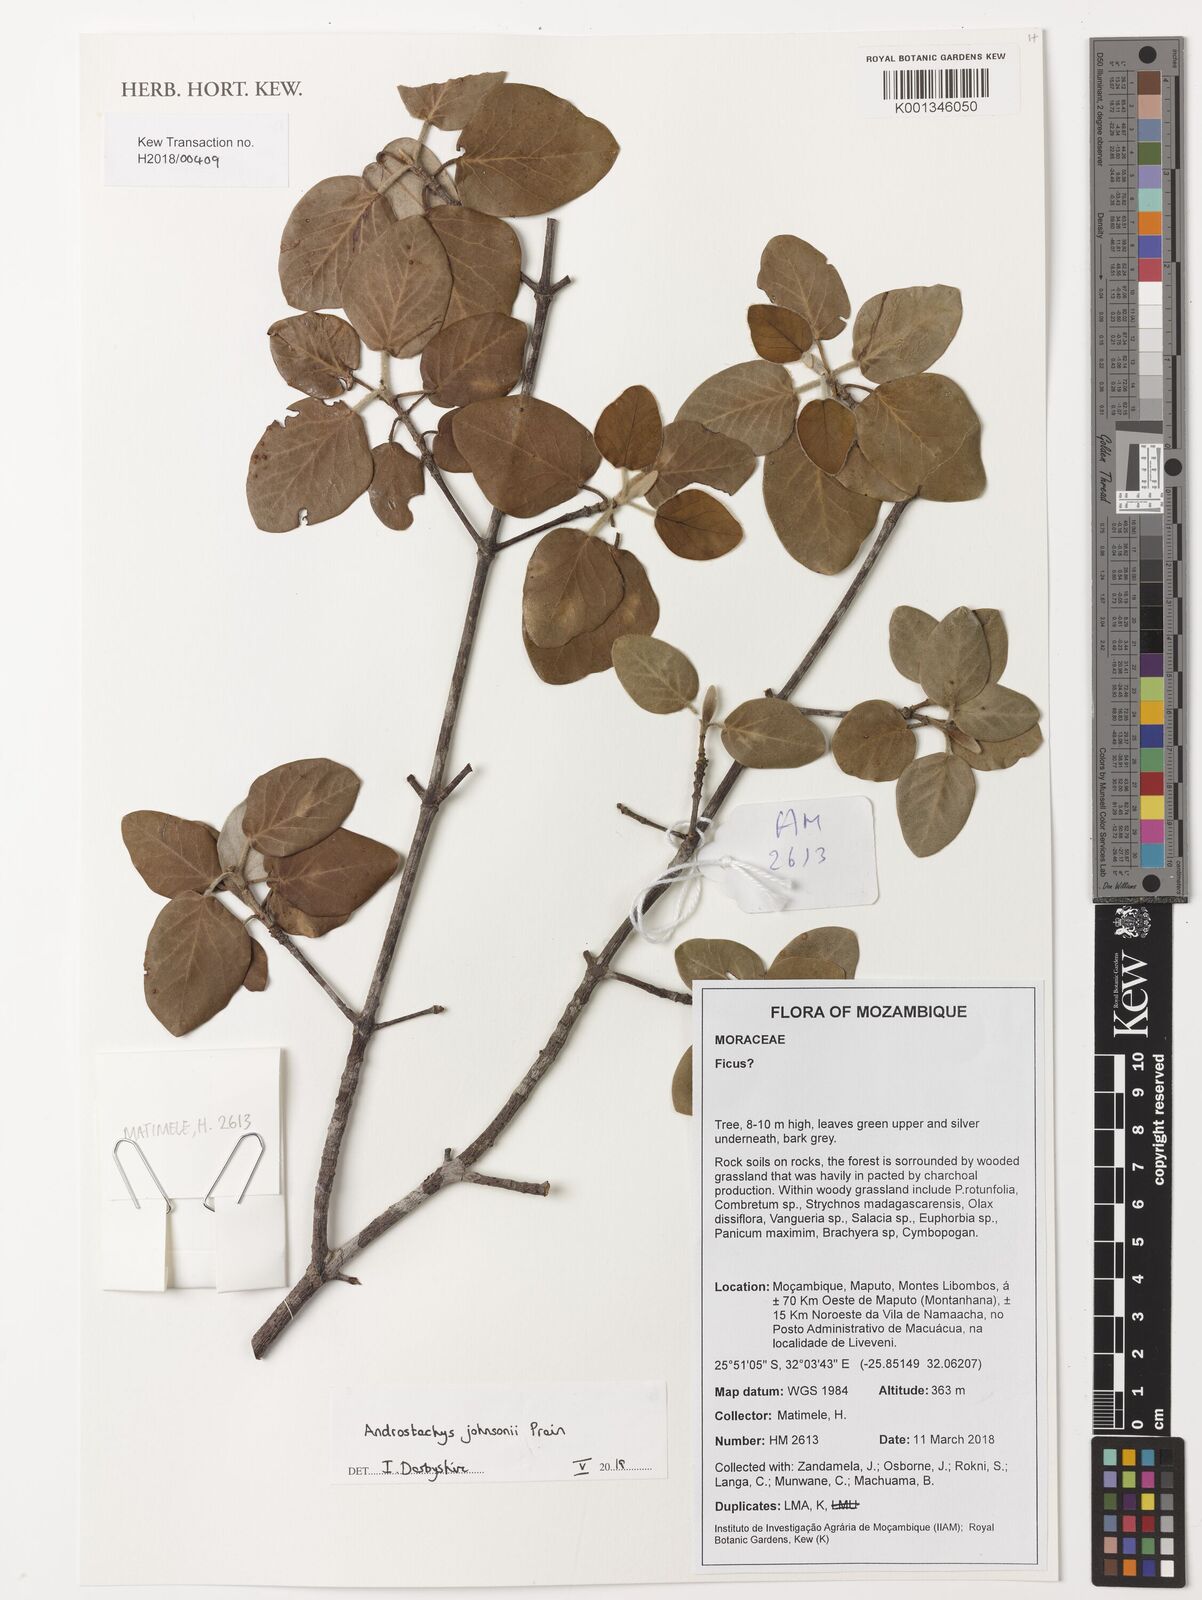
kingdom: Plantae
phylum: Tracheophyta
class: Magnoliopsida
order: Malpighiales
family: Picrodendraceae
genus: Androstachys
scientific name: Androstachys johnsonii
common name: Lebombo ironwood
